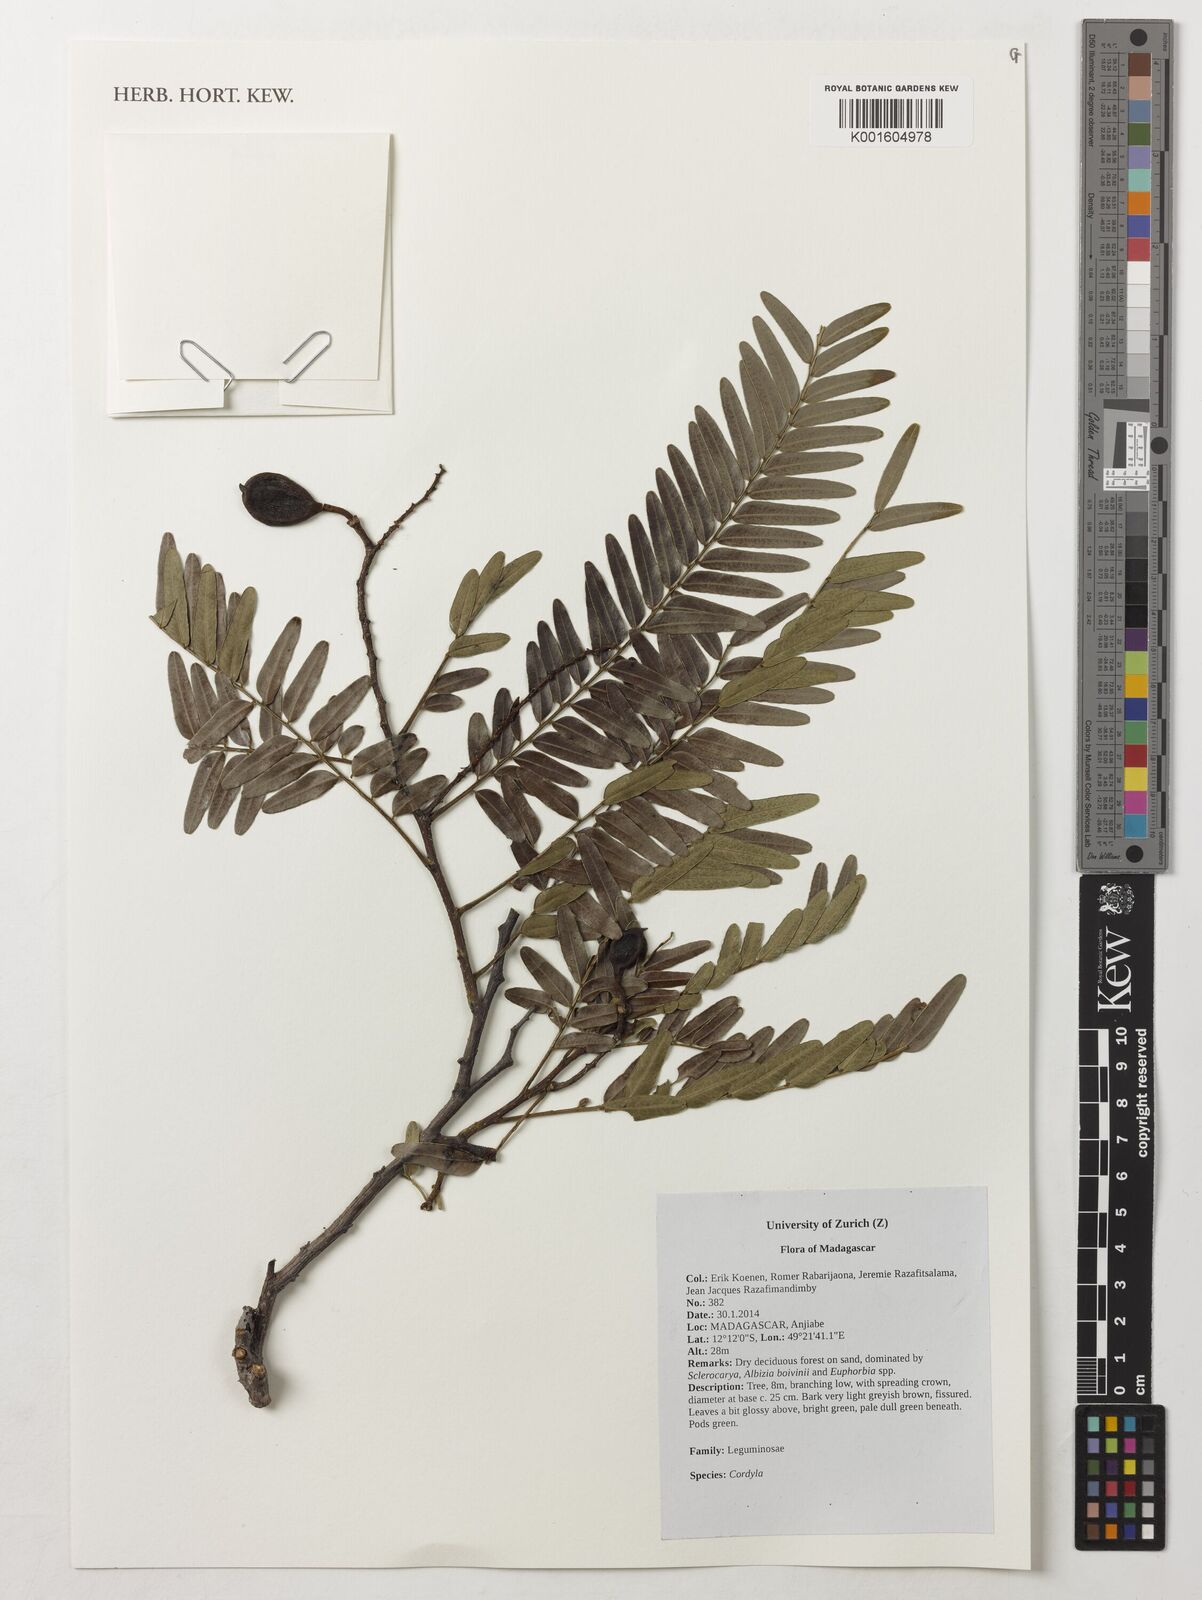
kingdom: Plantae
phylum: Tracheophyta
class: Magnoliopsida
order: Fabales
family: Fabaceae
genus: Cordyla
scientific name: Cordyla
